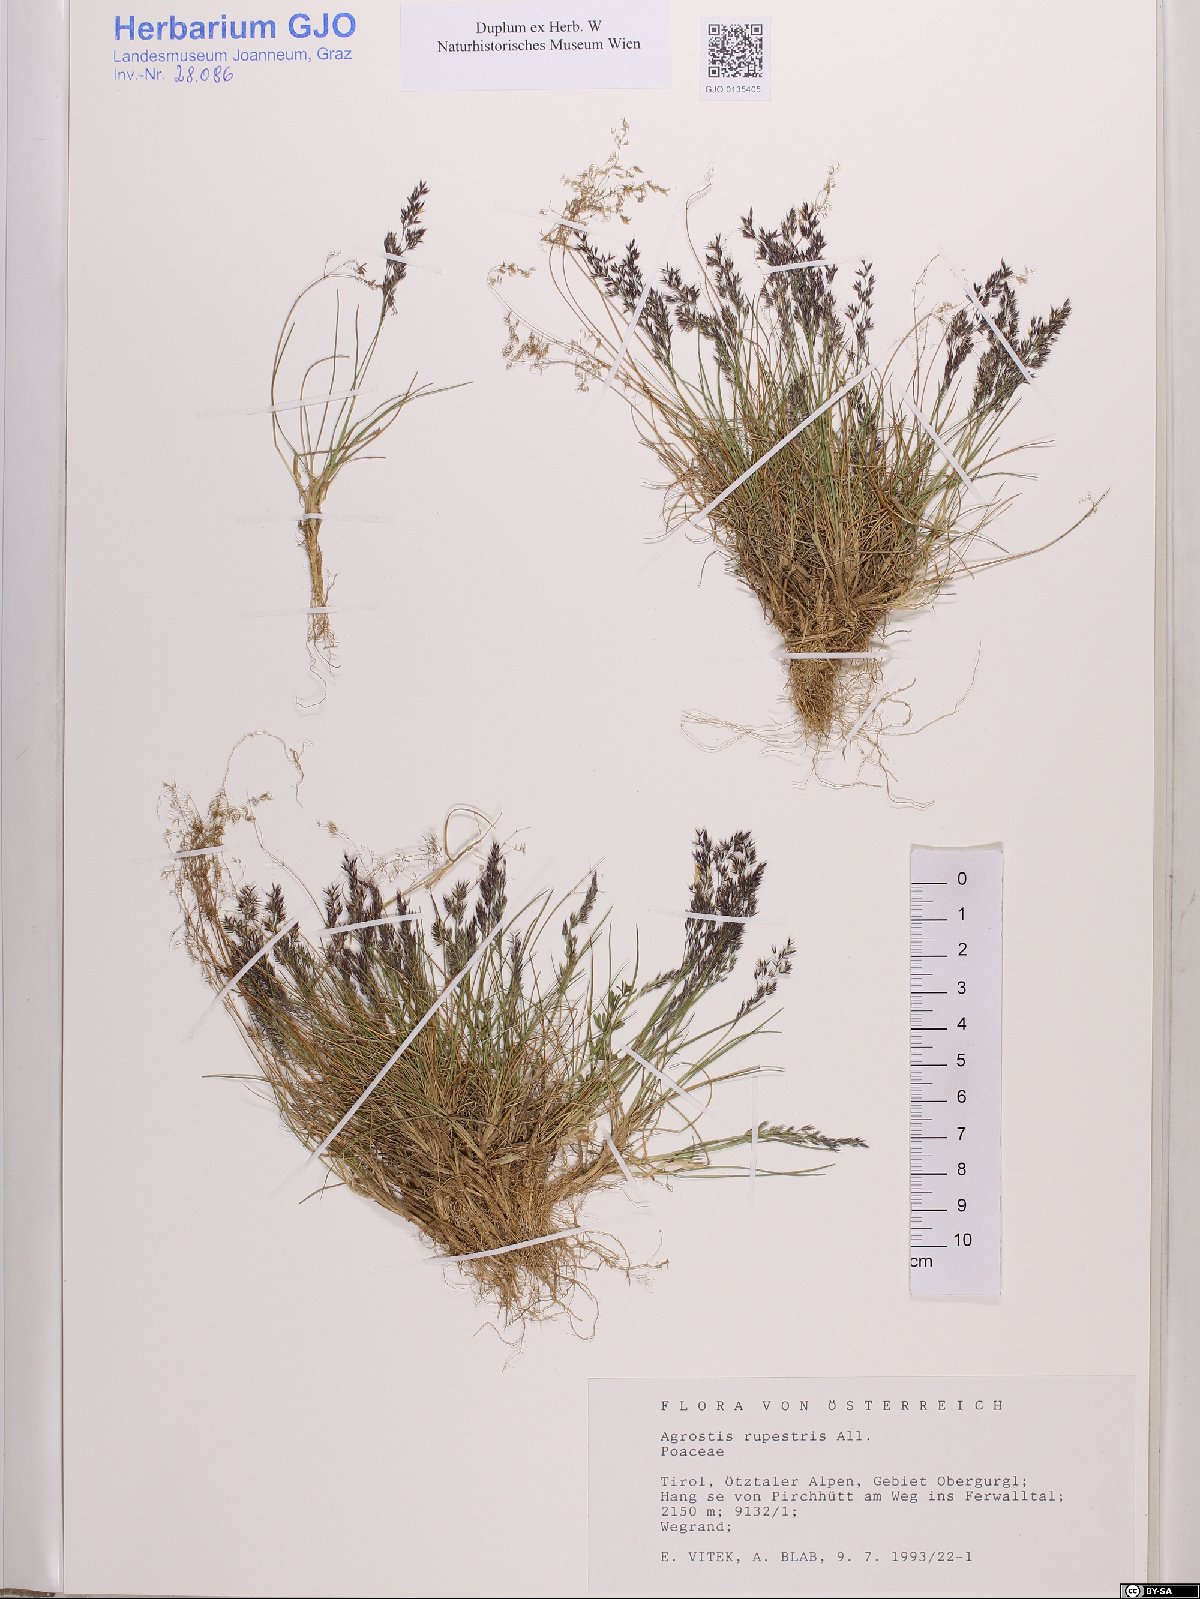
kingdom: Plantae
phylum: Tracheophyta
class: Liliopsida
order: Poales
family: Poaceae
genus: Agrostis
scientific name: Agrostis rupestris
